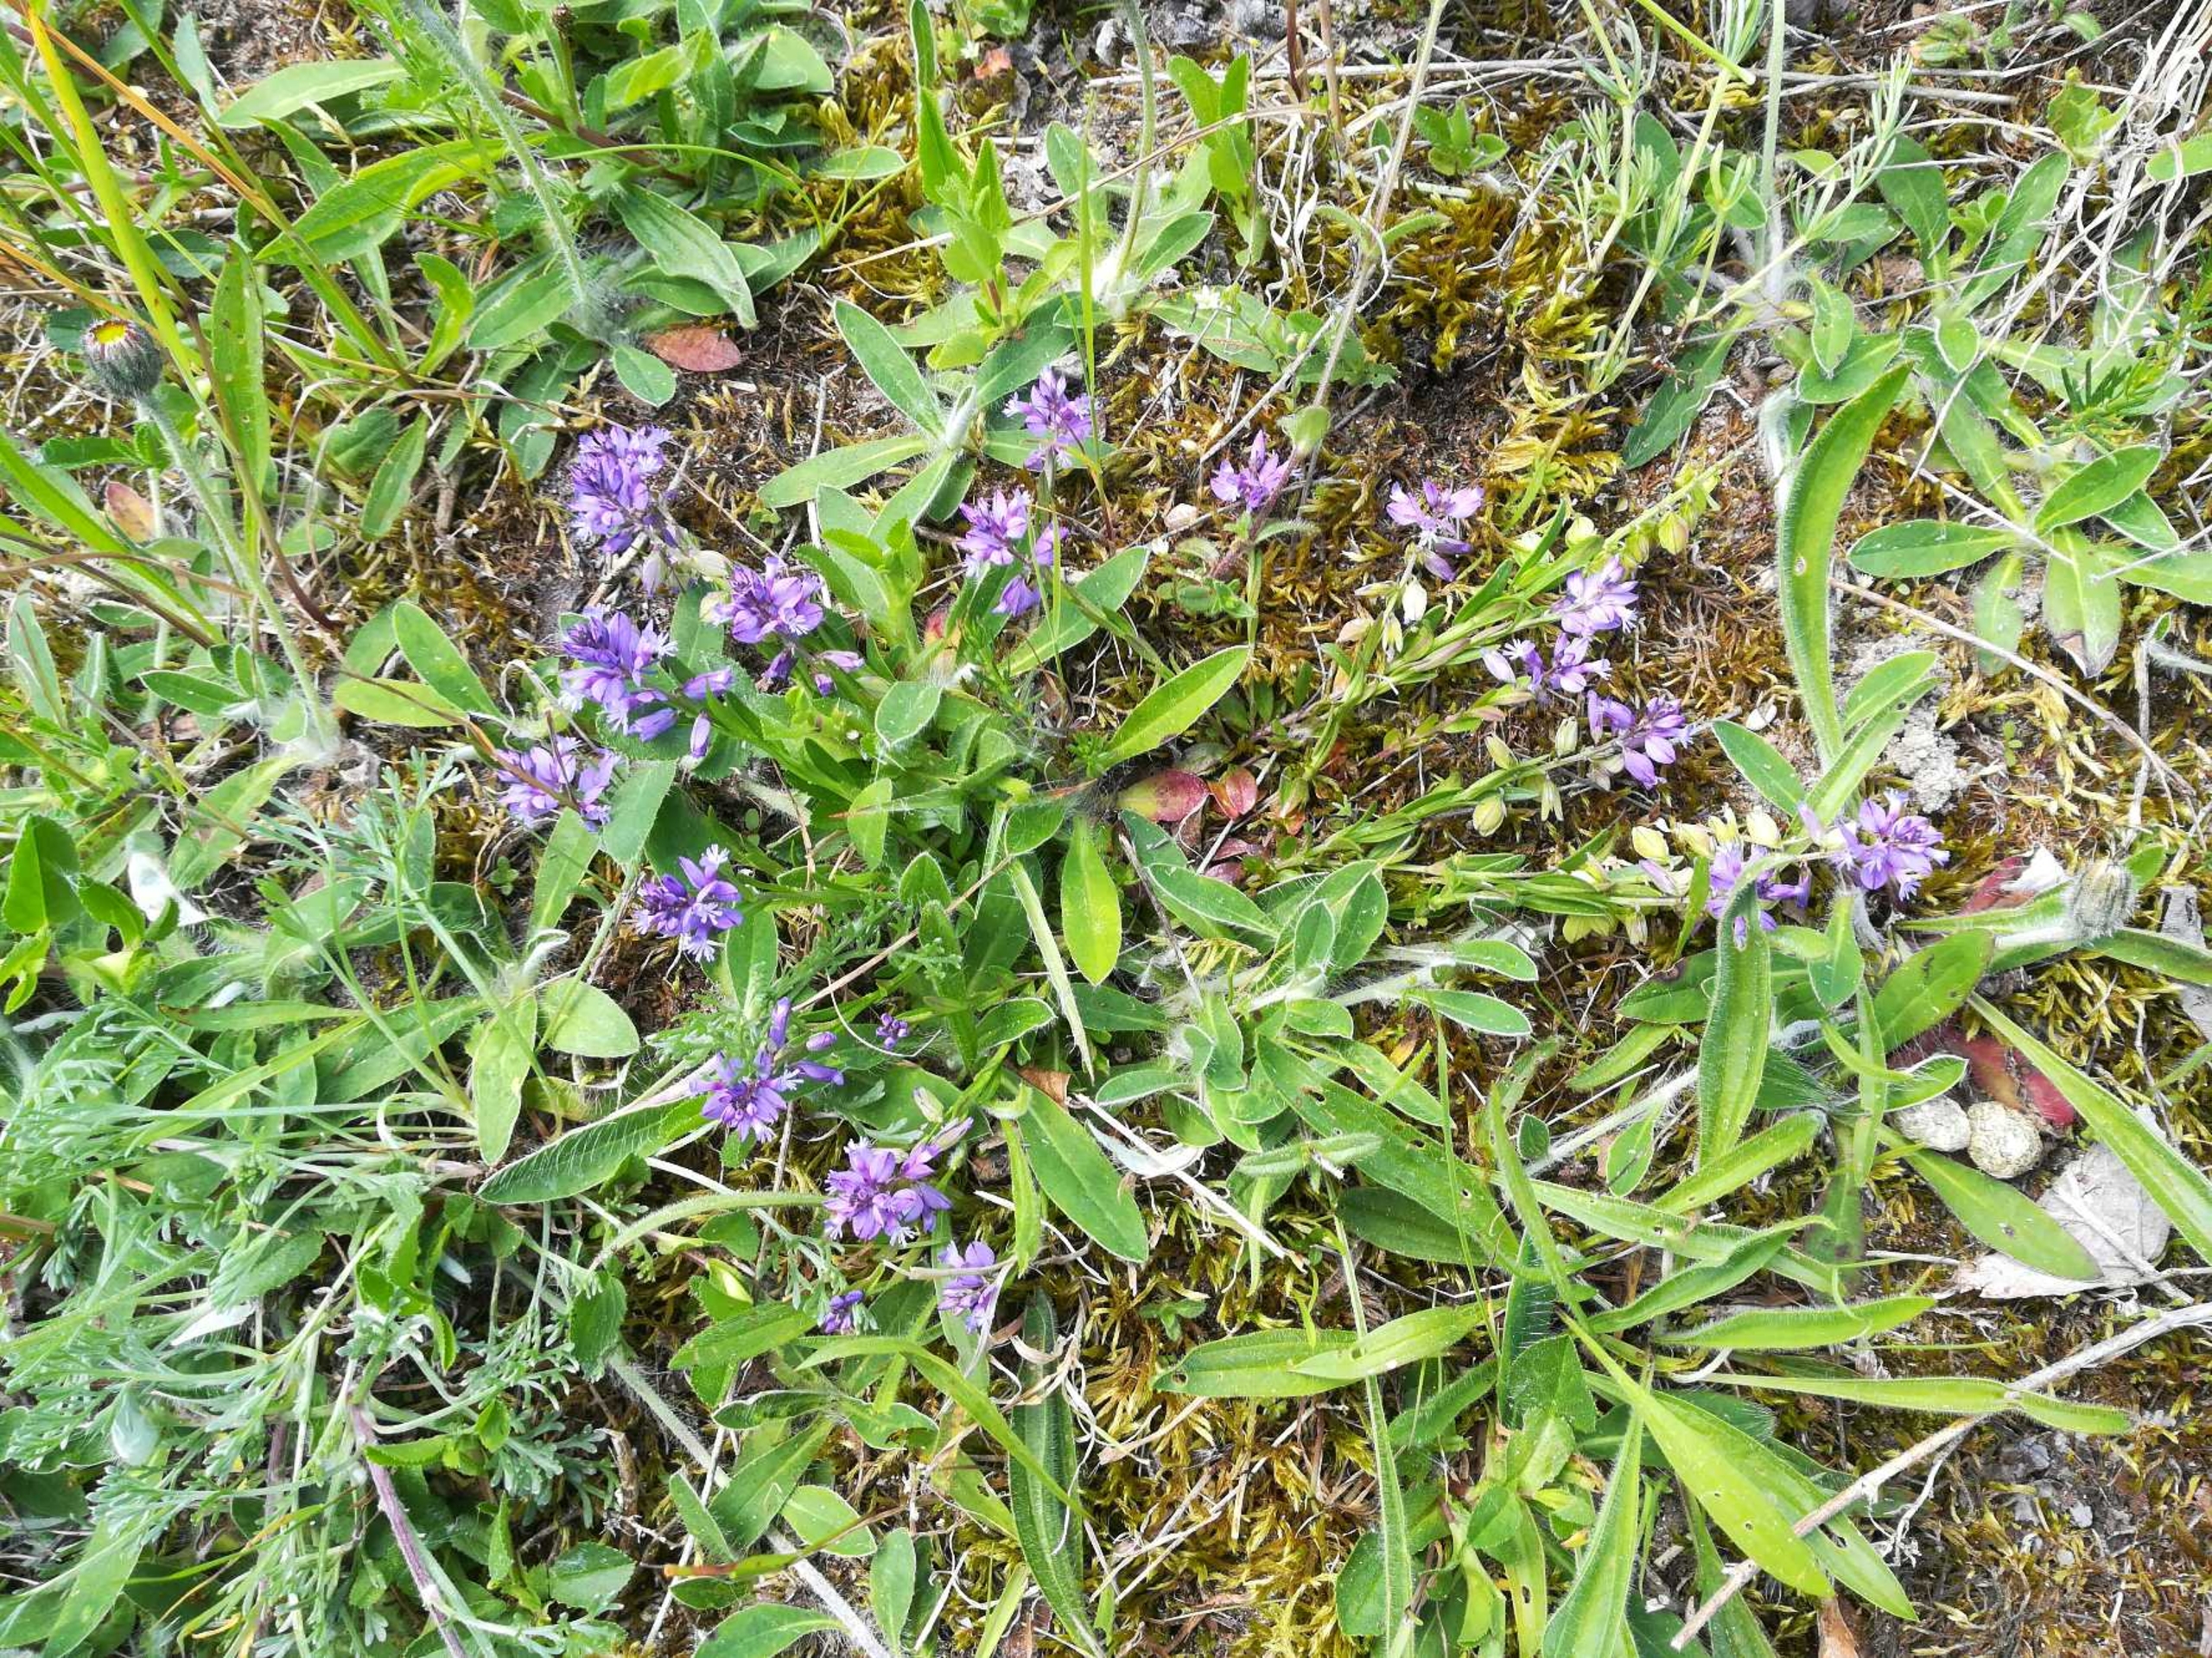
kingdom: Plantae
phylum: Tracheophyta
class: Magnoliopsida
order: Fabales
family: Polygalaceae
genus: Polygala
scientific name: Polygala vulgaris
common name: Almindelig mælkeurt
